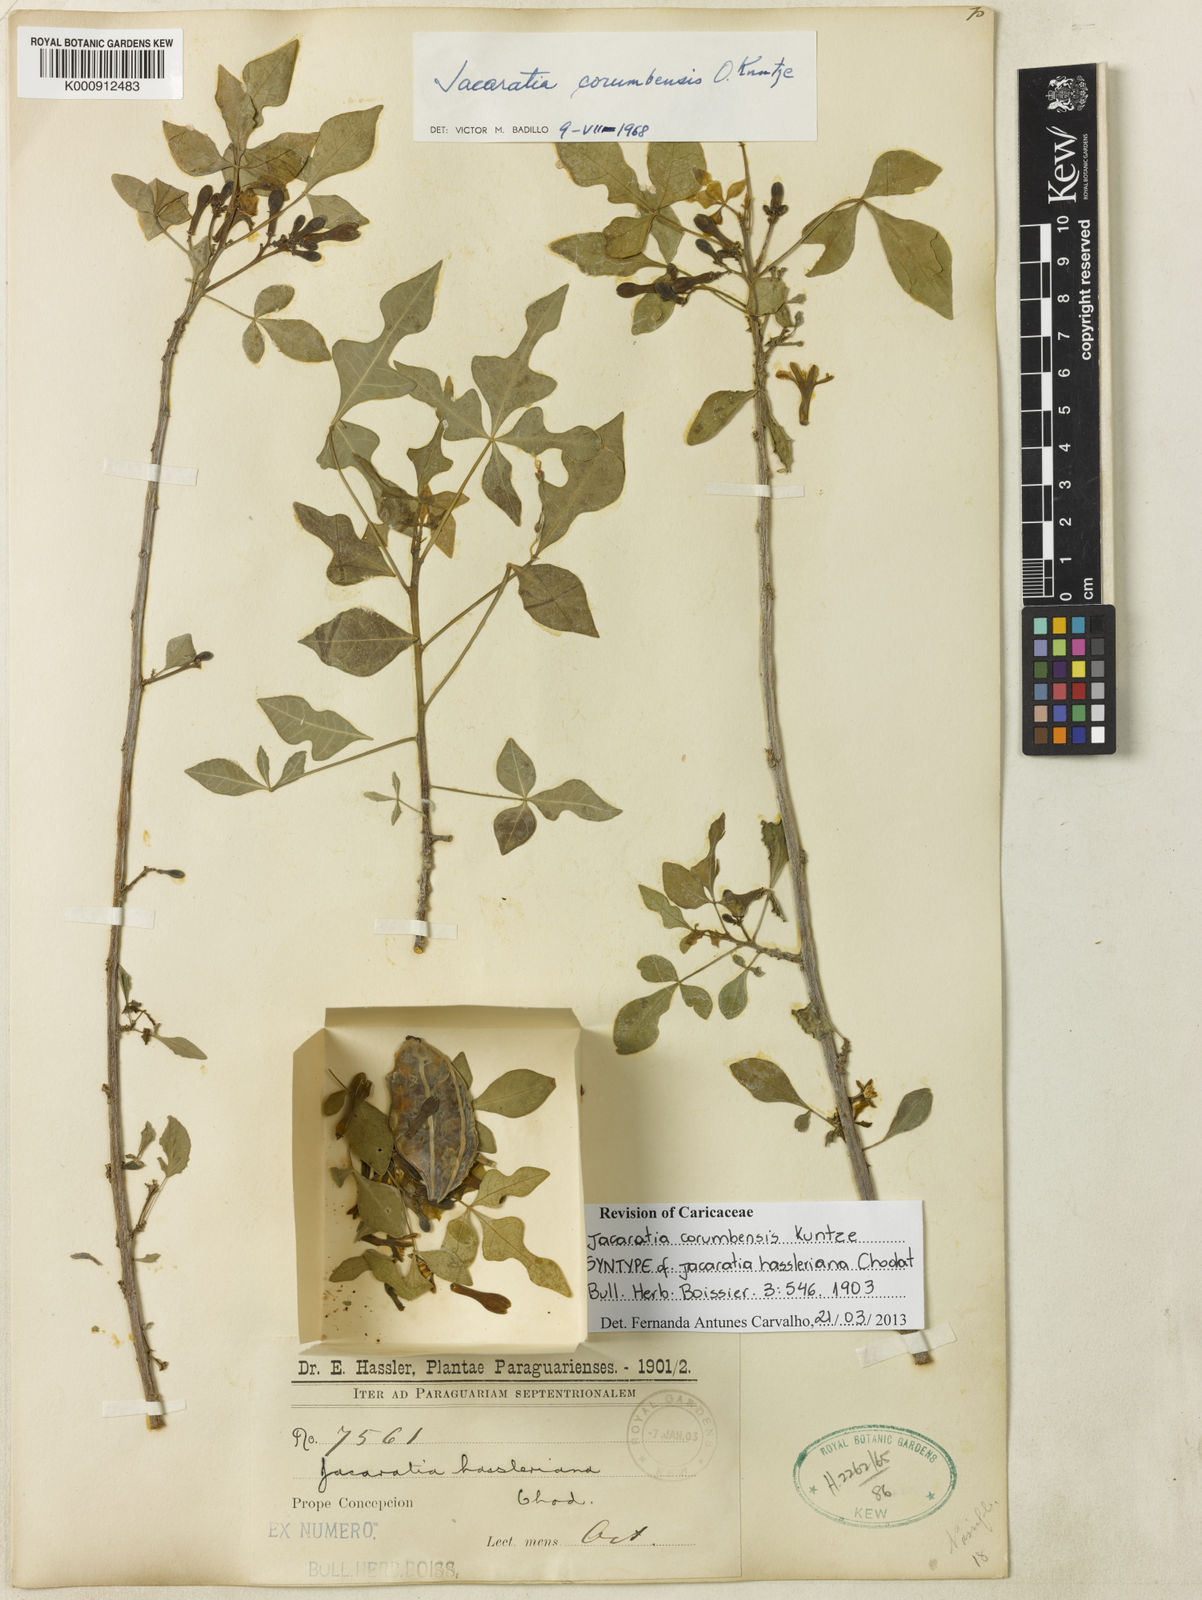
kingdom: Plantae
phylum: Tracheophyta
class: Magnoliopsida
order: Brassicales
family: Caricaceae
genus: Jacaratia
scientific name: Jacaratia corumbensis
